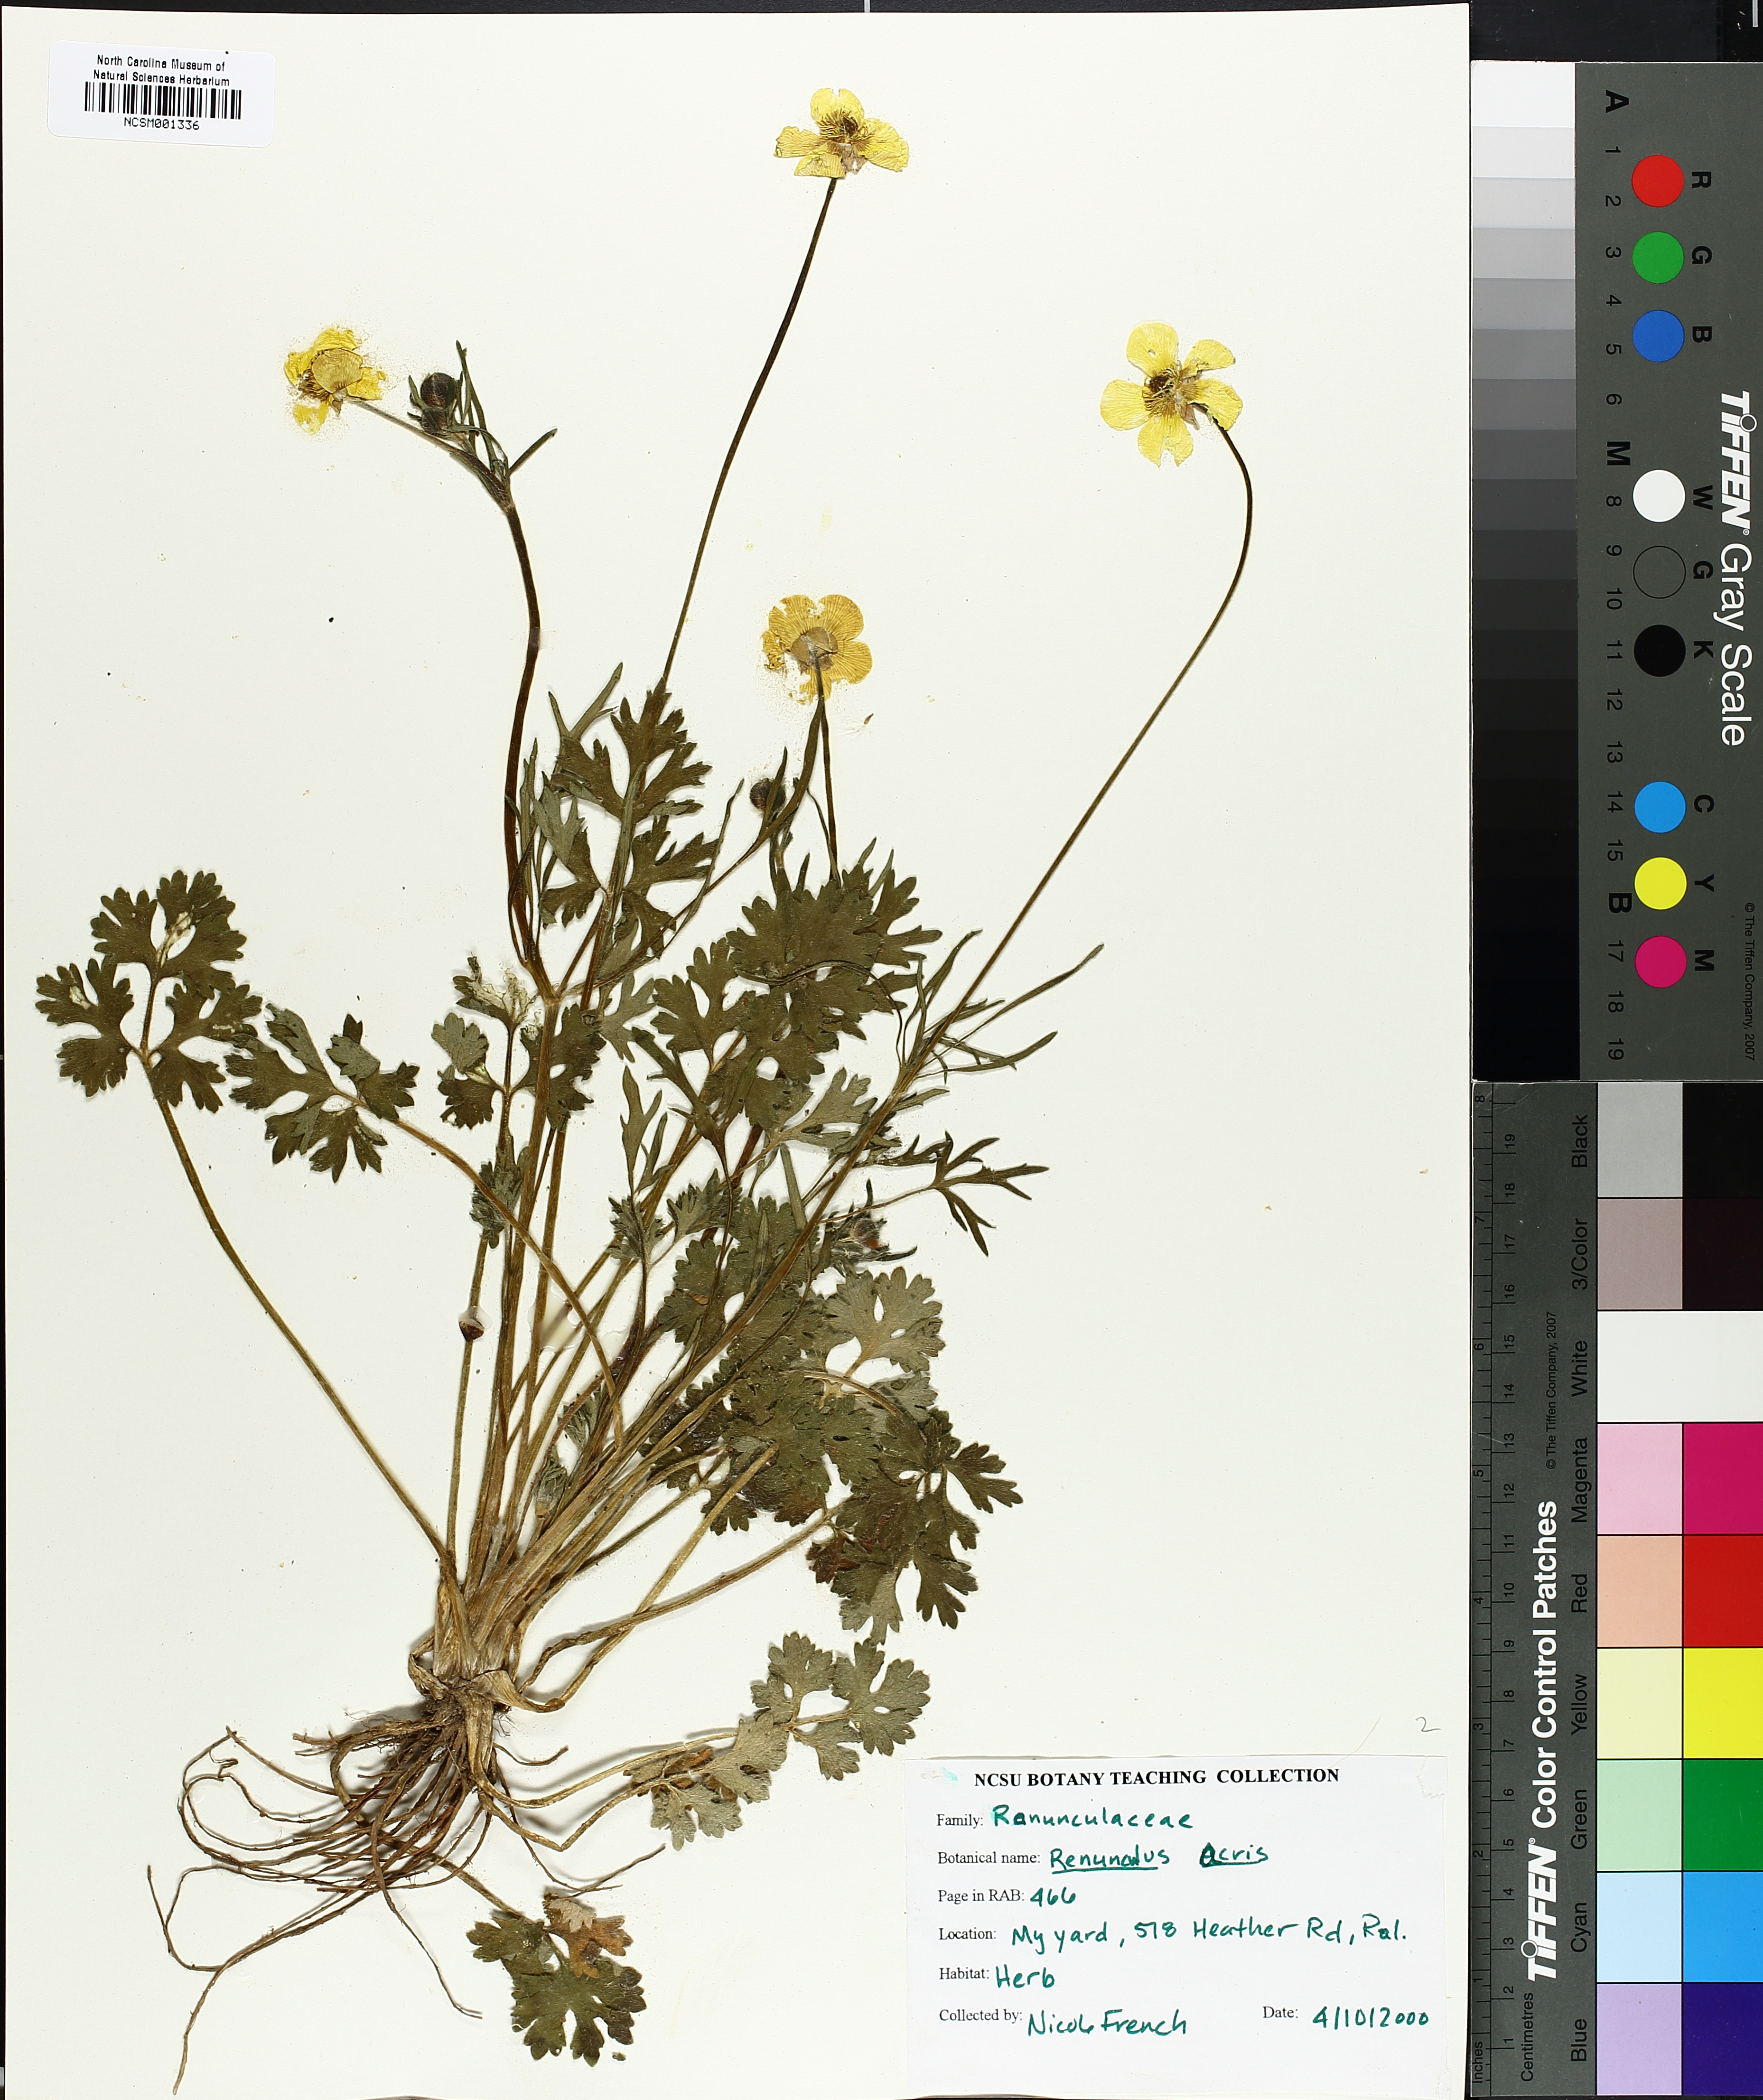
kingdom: Plantae
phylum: Tracheophyta
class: Magnoliopsida
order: Ranunculales
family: Ranunculaceae
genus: Ranunculus
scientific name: Ranunculus acris
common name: Meadow buttercup
